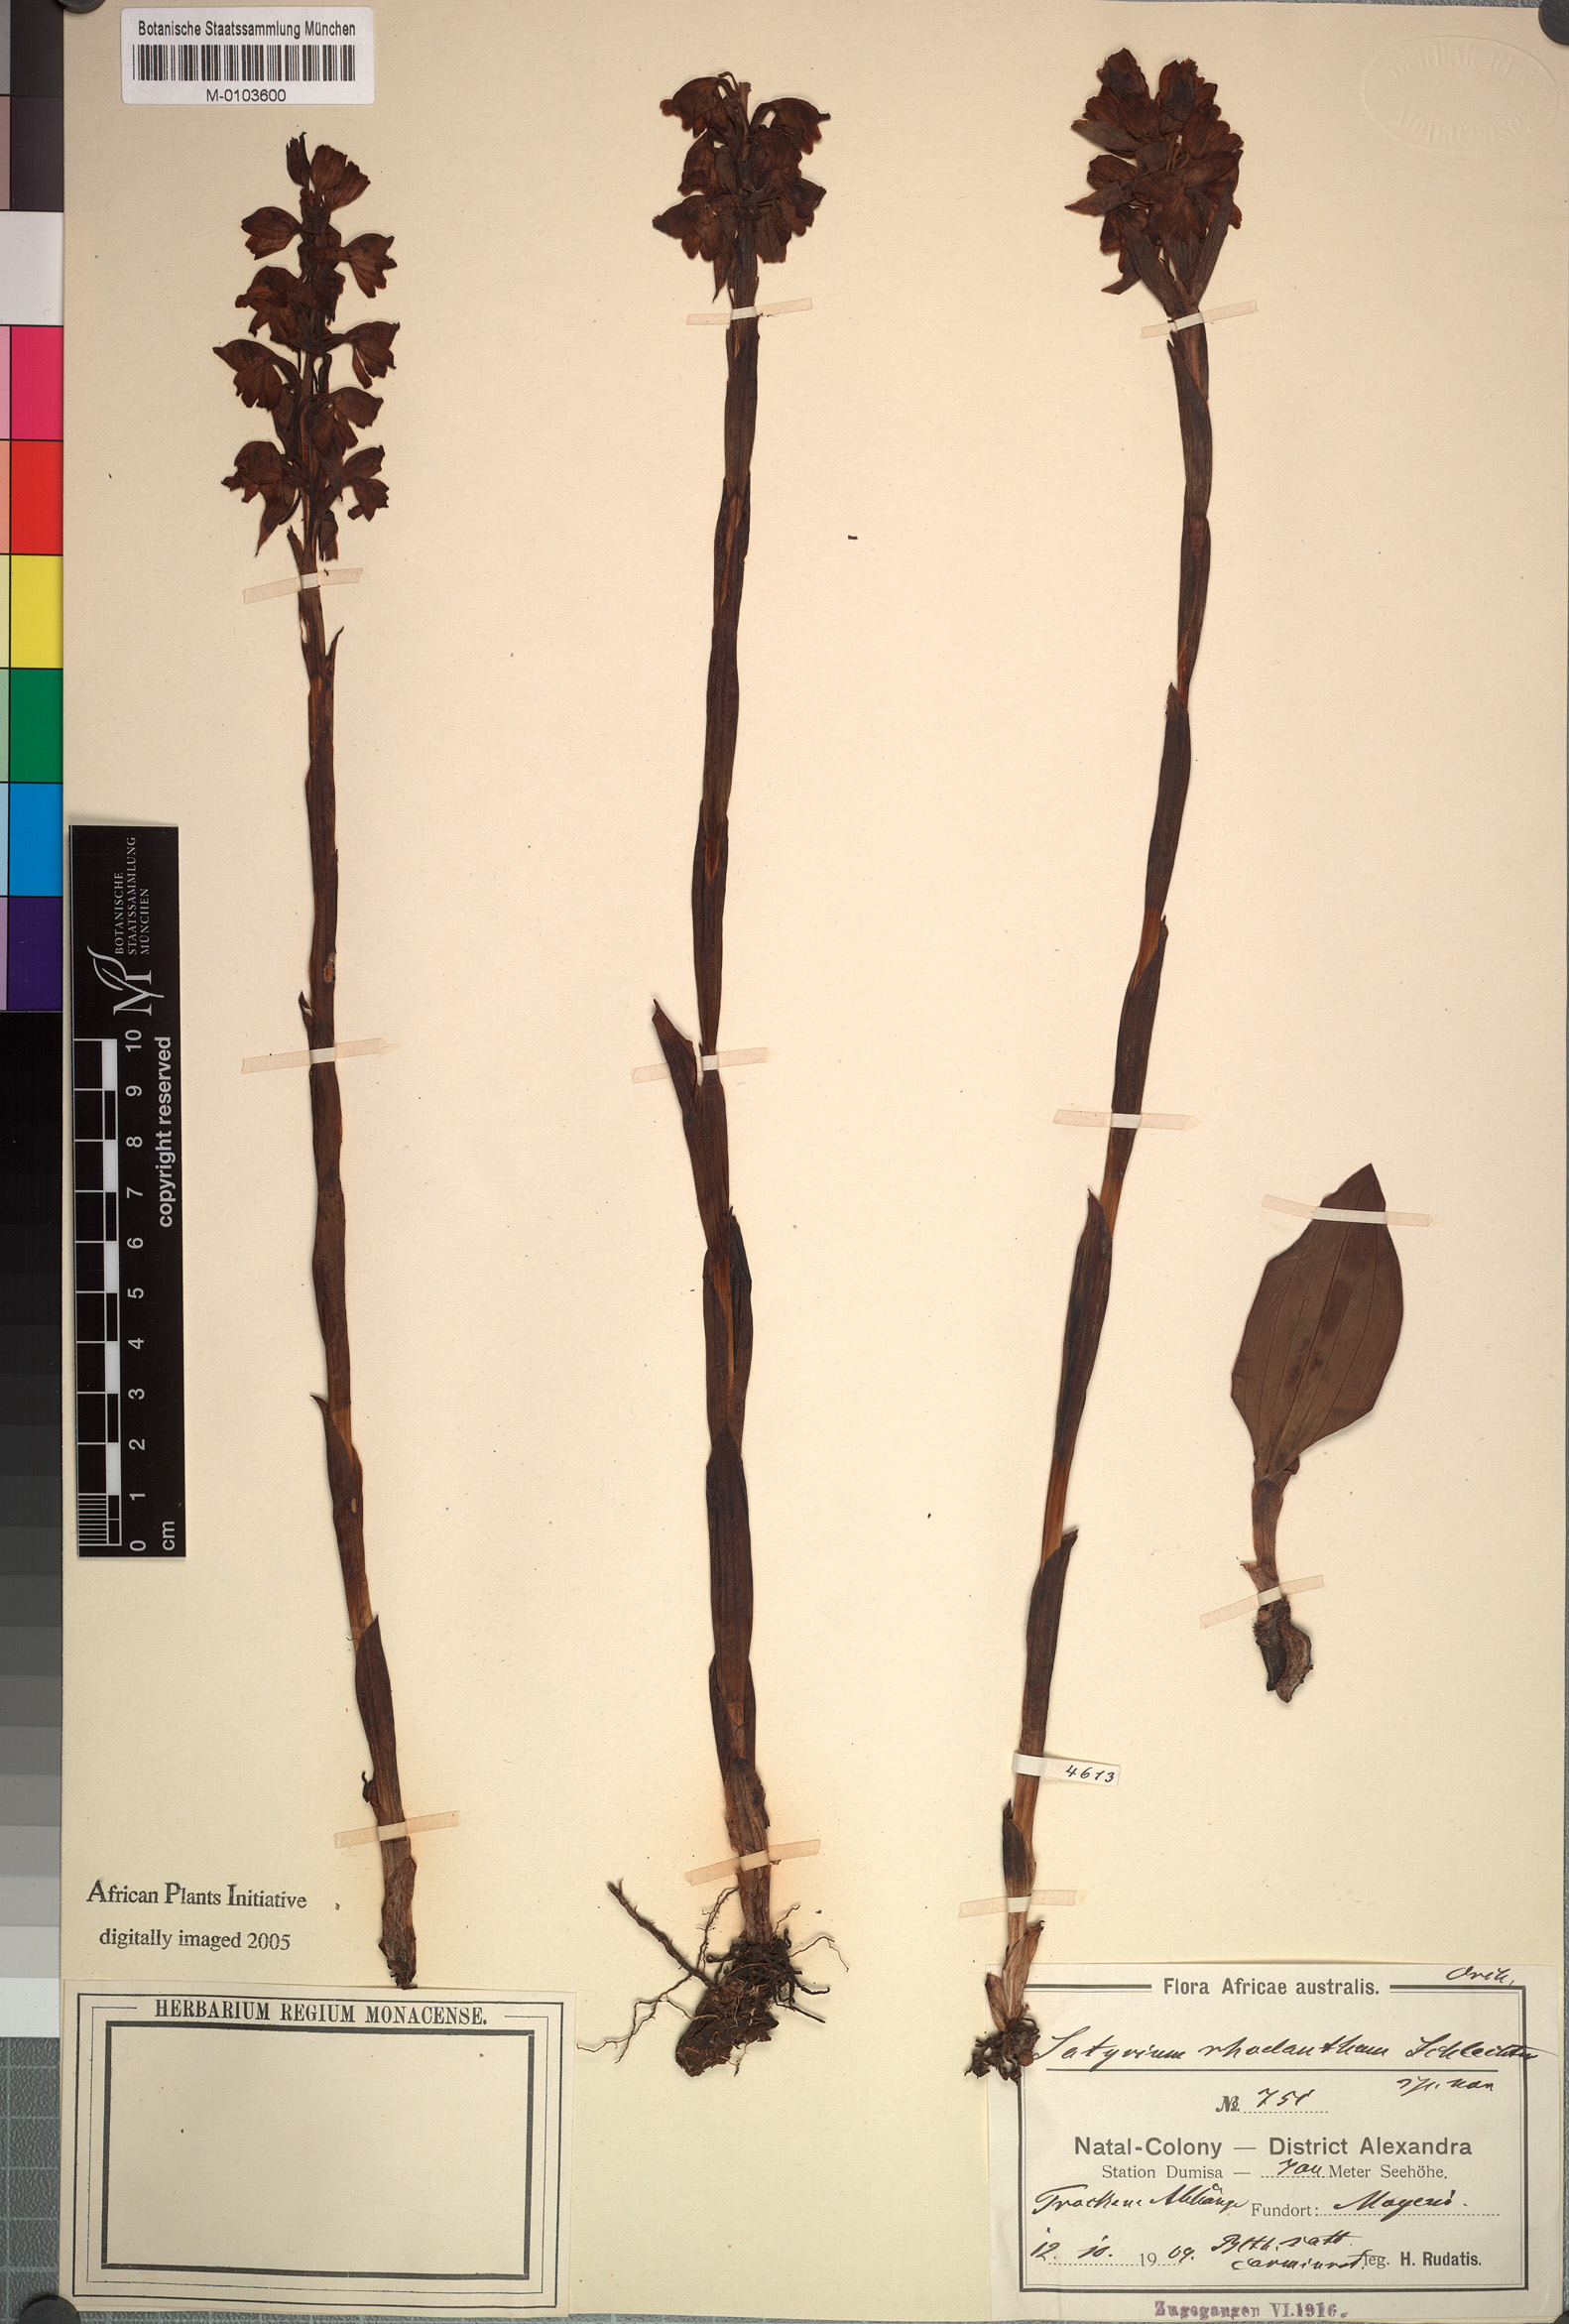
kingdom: Plantae
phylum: Tracheophyta
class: Liliopsida
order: Asparagales
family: Orchidaceae
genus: Satyrium
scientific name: Satyrium rhodanthum
